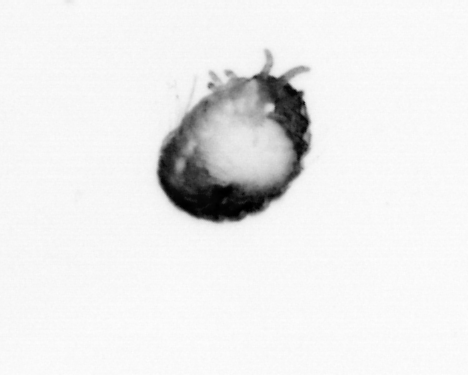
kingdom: Animalia
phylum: Annelida
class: Polychaeta
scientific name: Polychaeta
